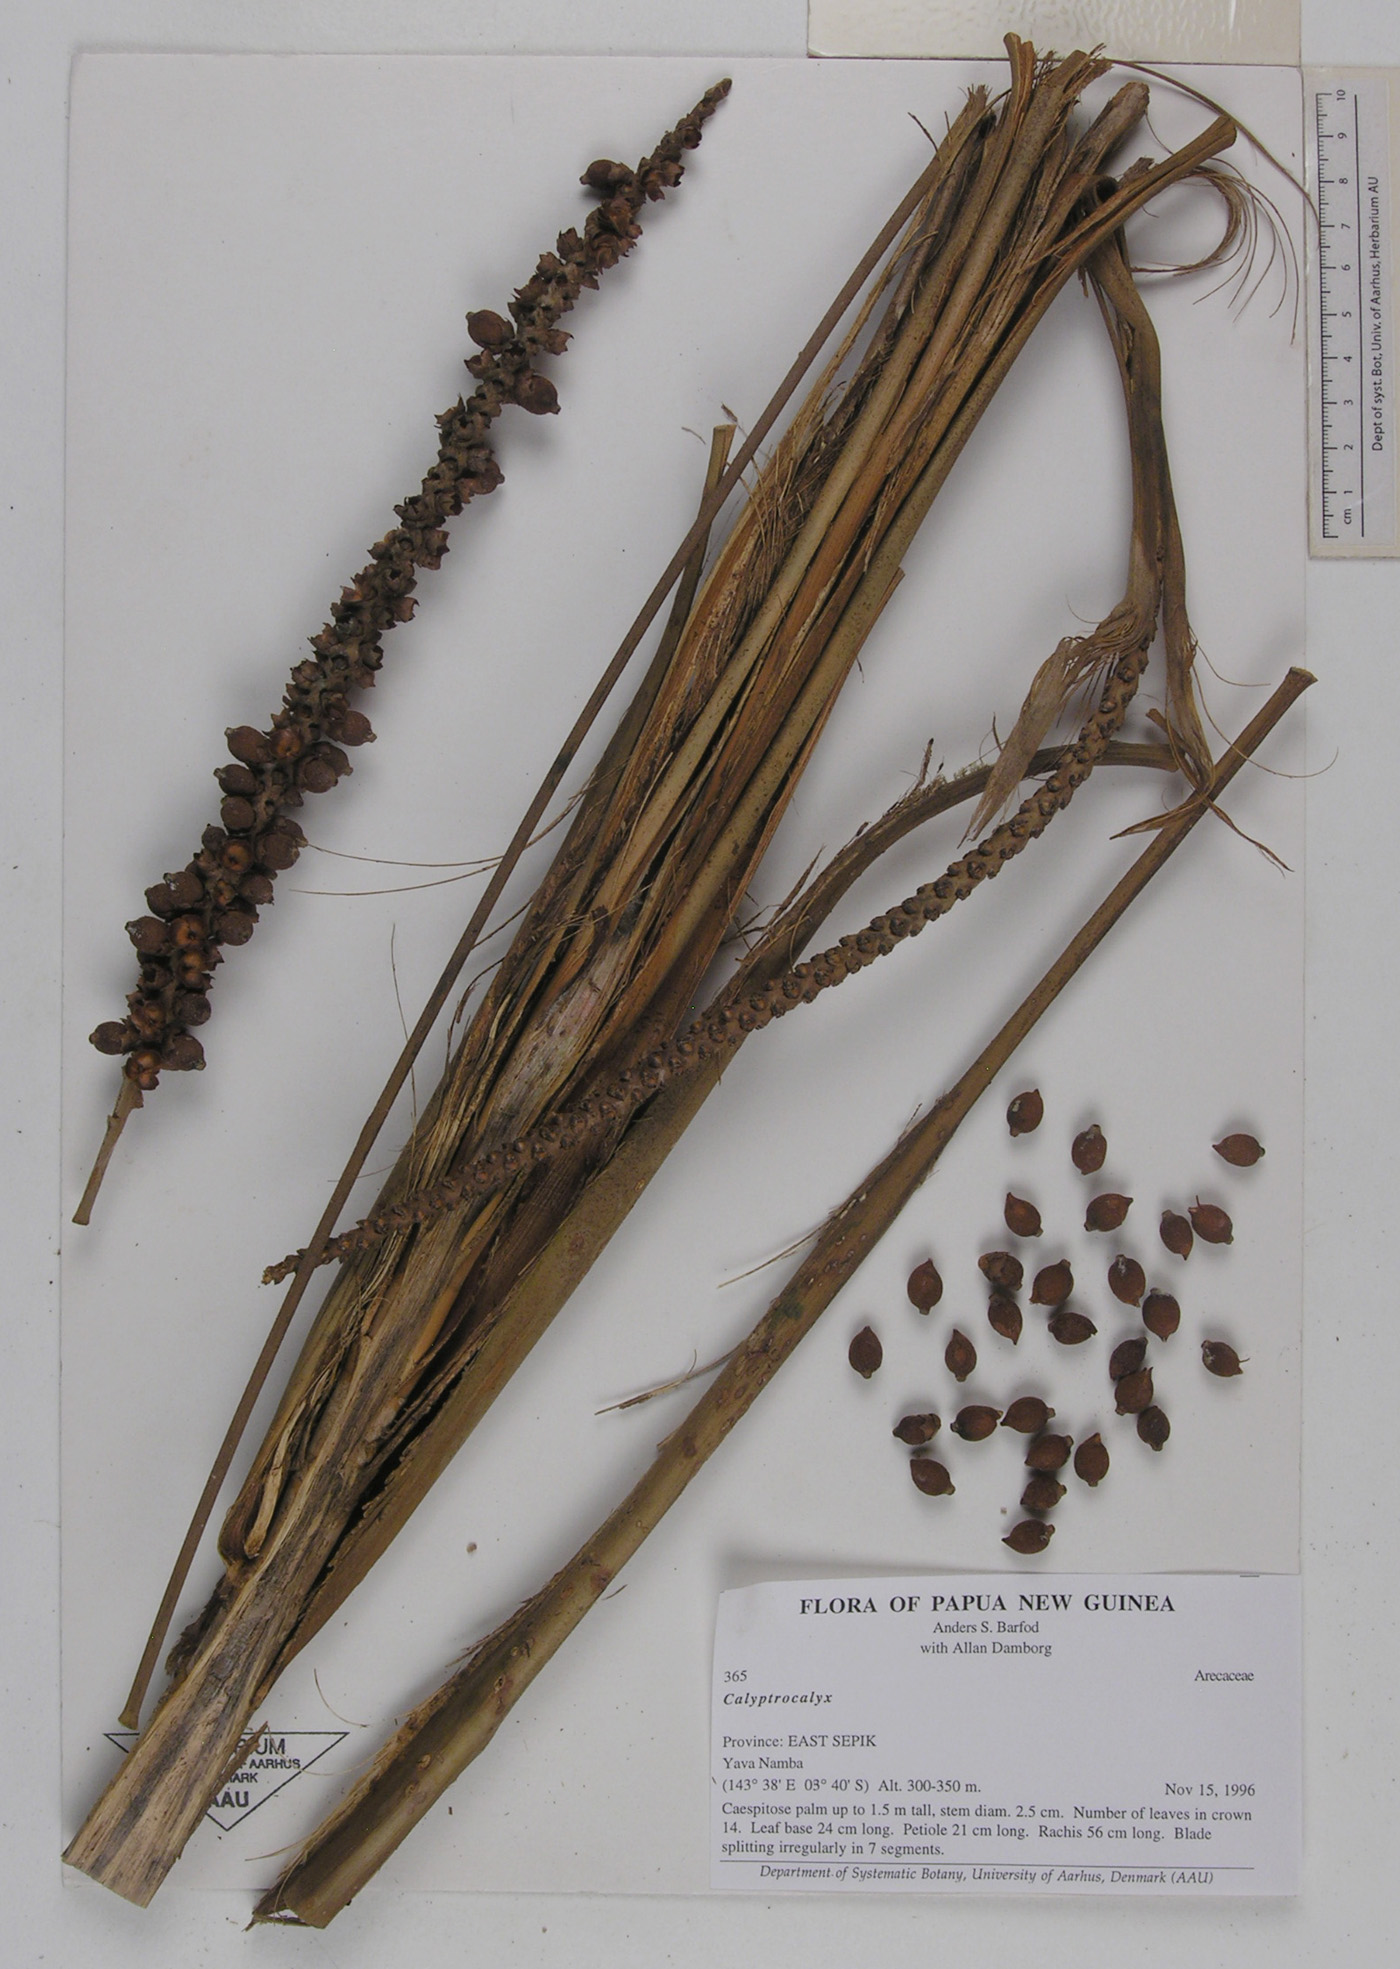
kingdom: Plantae
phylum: Tracheophyta
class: Liliopsida
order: Arecales
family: Arecaceae
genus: Calyptrocalyx
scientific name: Calyptrocalyx elegans
